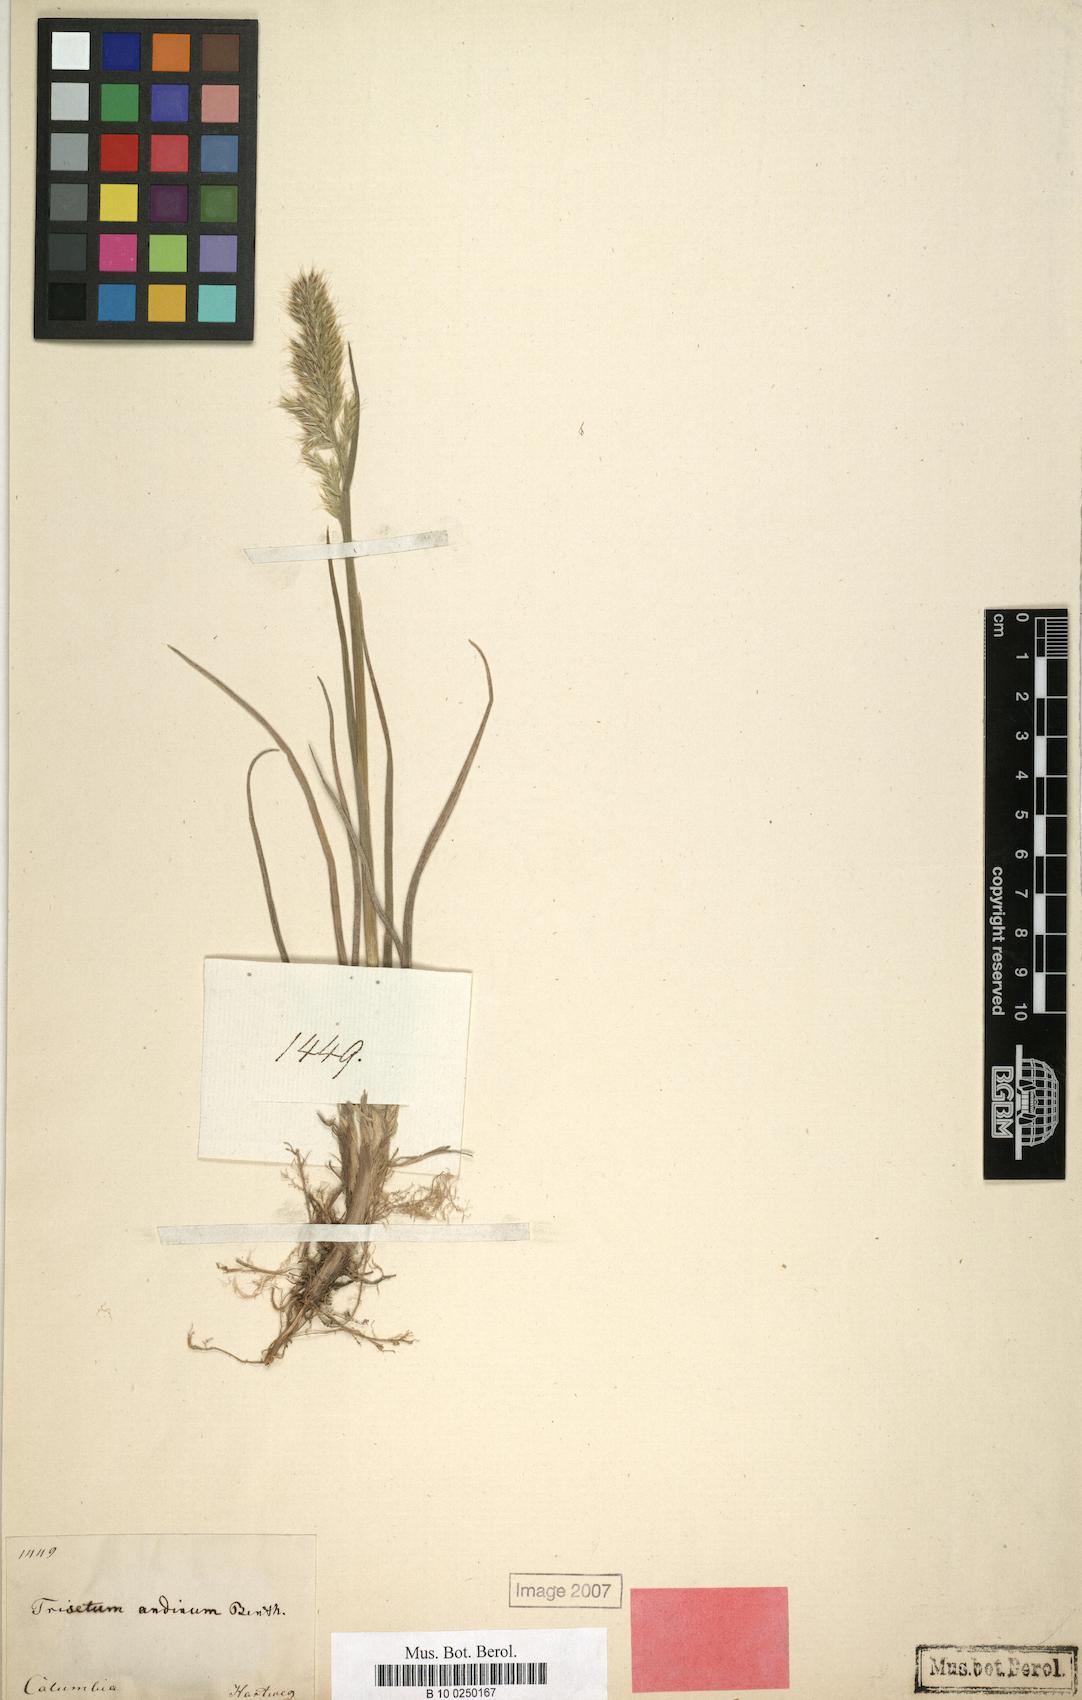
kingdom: Plantae
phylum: Tracheophyta
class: Liliopsida
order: Poales
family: Poaceae
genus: Koeleria
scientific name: Koeleria spicata
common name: Mountain trisetum
